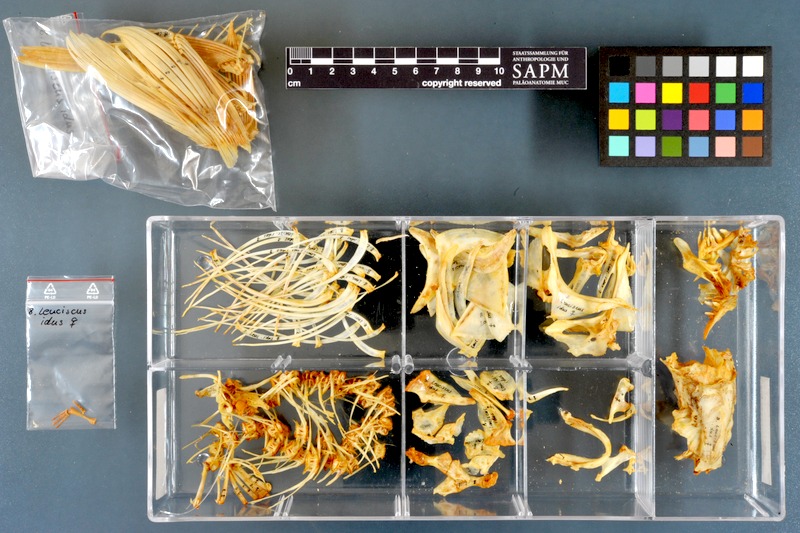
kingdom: Animalia
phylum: Chordata
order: Cypriniformes
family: Cyprinidae
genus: Leuciscus
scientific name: Leuciscus idus
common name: Ide
